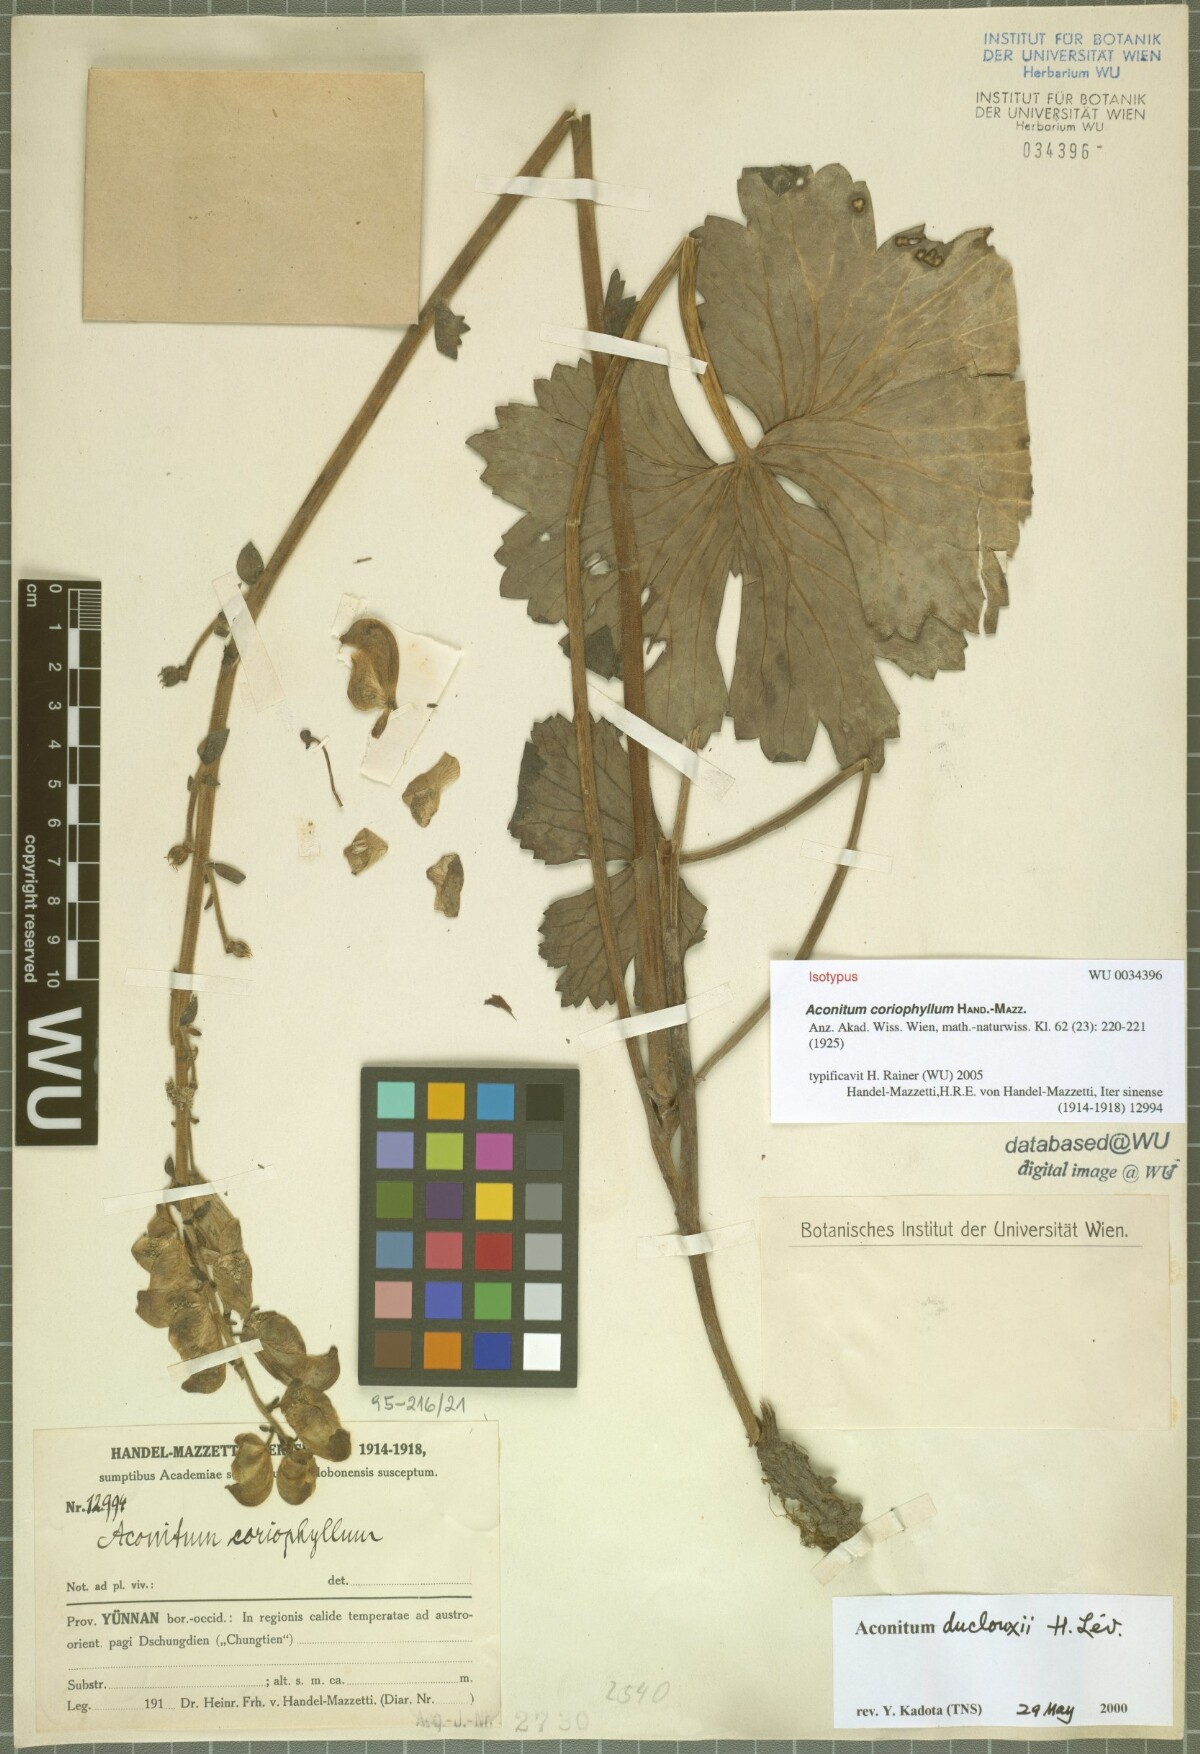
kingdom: Plantae
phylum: Tracheophyta
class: Magnoliopsida
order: Ranunculales
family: Ranunculaceae
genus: Aconitum
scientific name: Aconitum duclouxii
